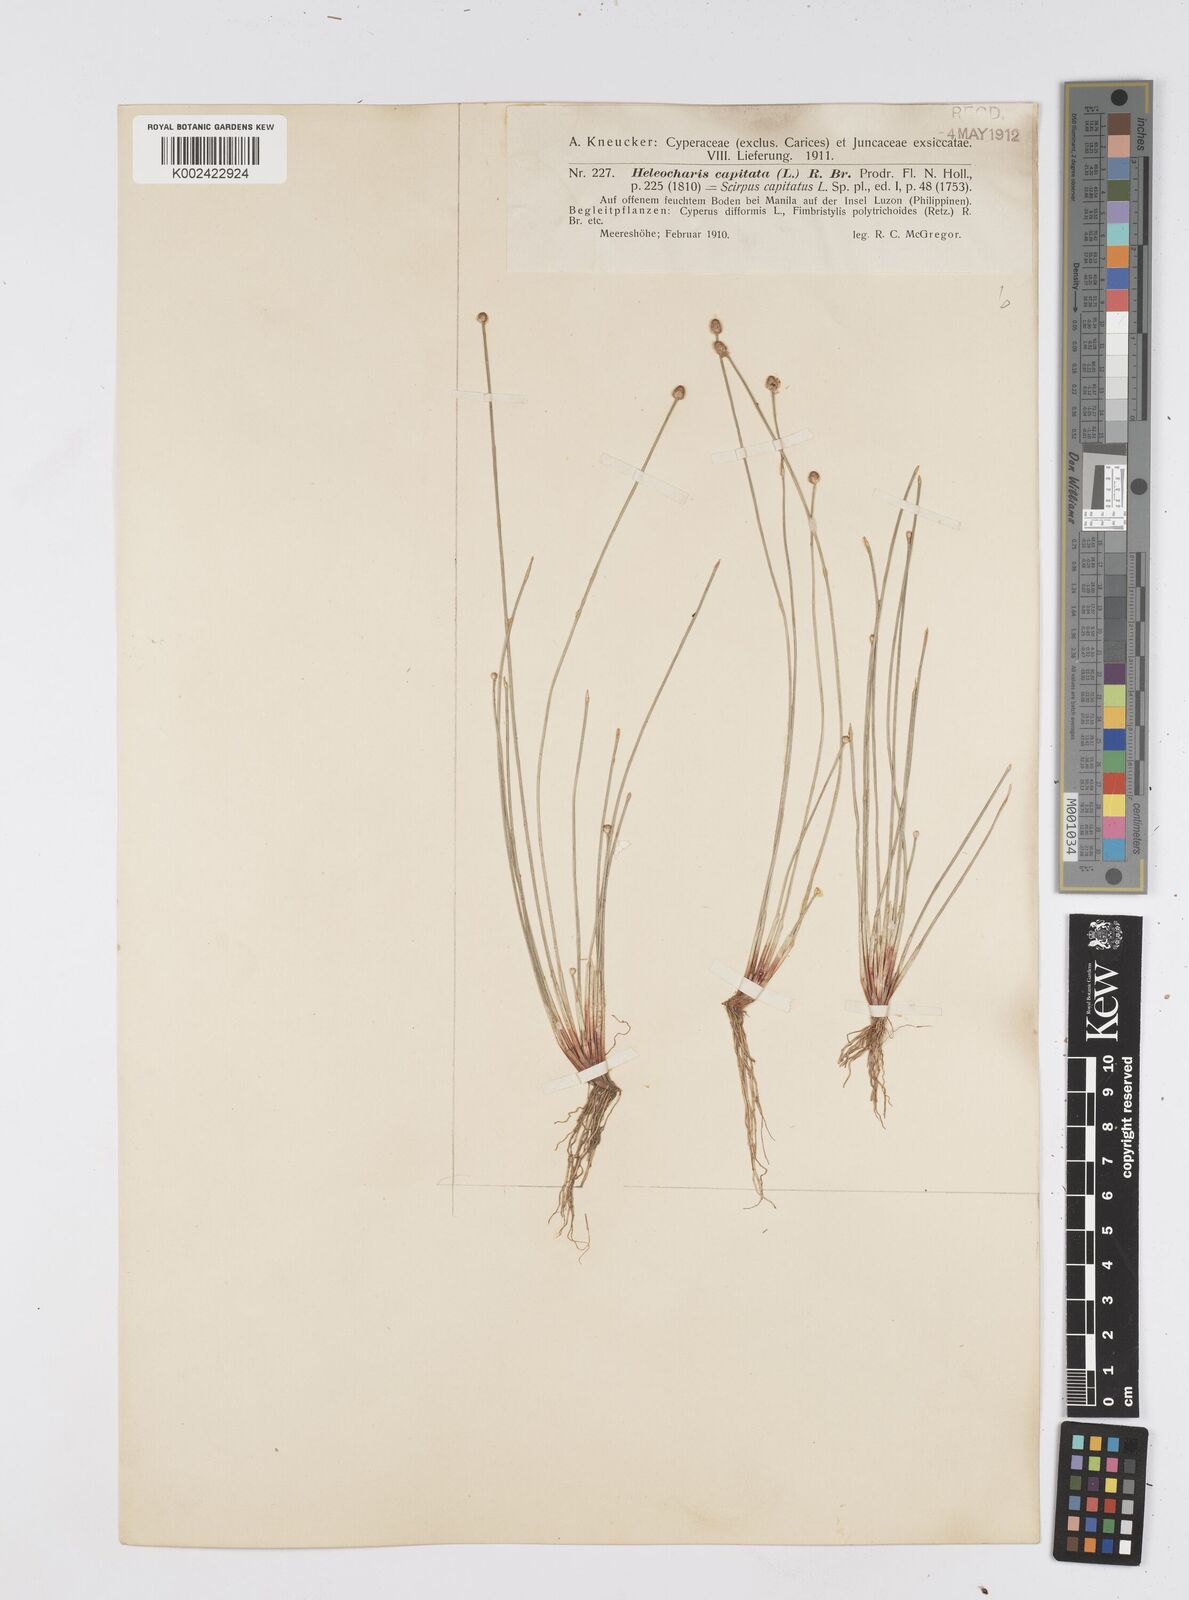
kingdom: Plantae
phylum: Tracheophyta
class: Liliopsida
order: Poales
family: Cyperaceae
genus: Eleocharis
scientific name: Eleocharis geniculata
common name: Canada spikesedge
